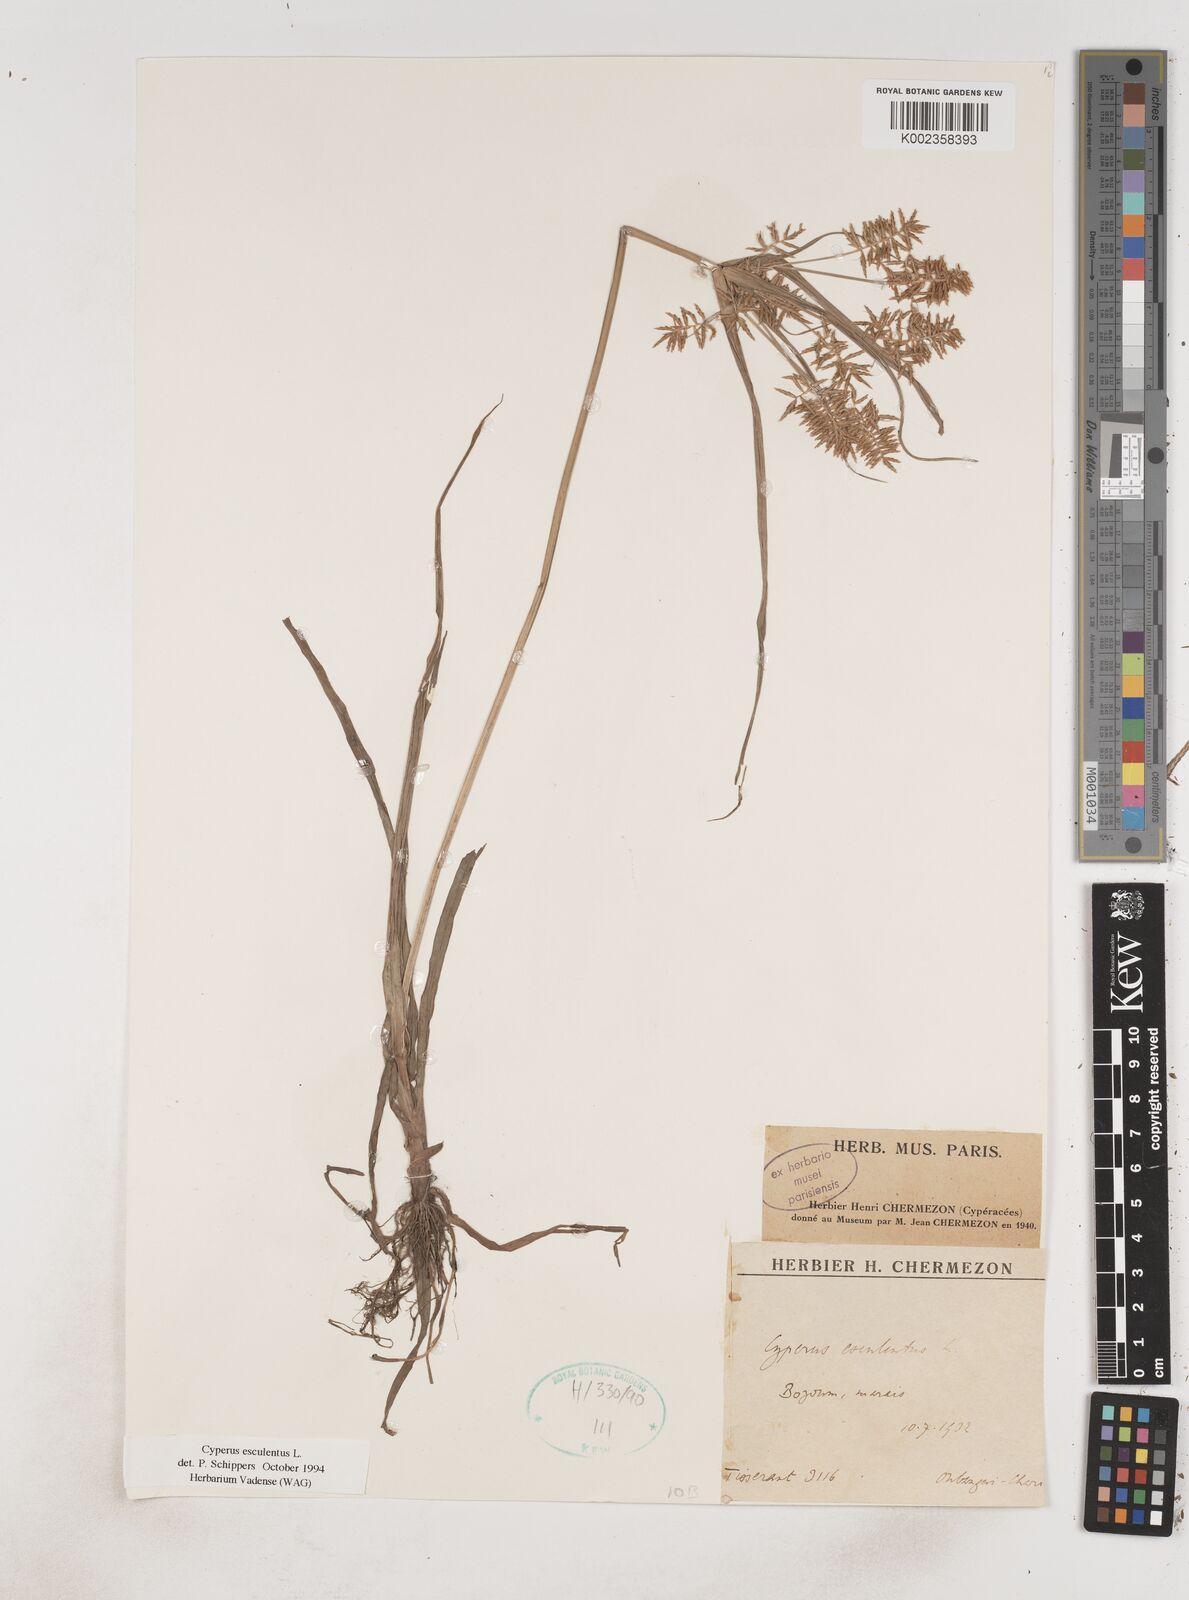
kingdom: Plantae
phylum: Tracheophyta
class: Liliopsida
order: Poales
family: Cyperaceae
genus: Cyperus
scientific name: Cyperus esculentus
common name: Yellow nutsedge
